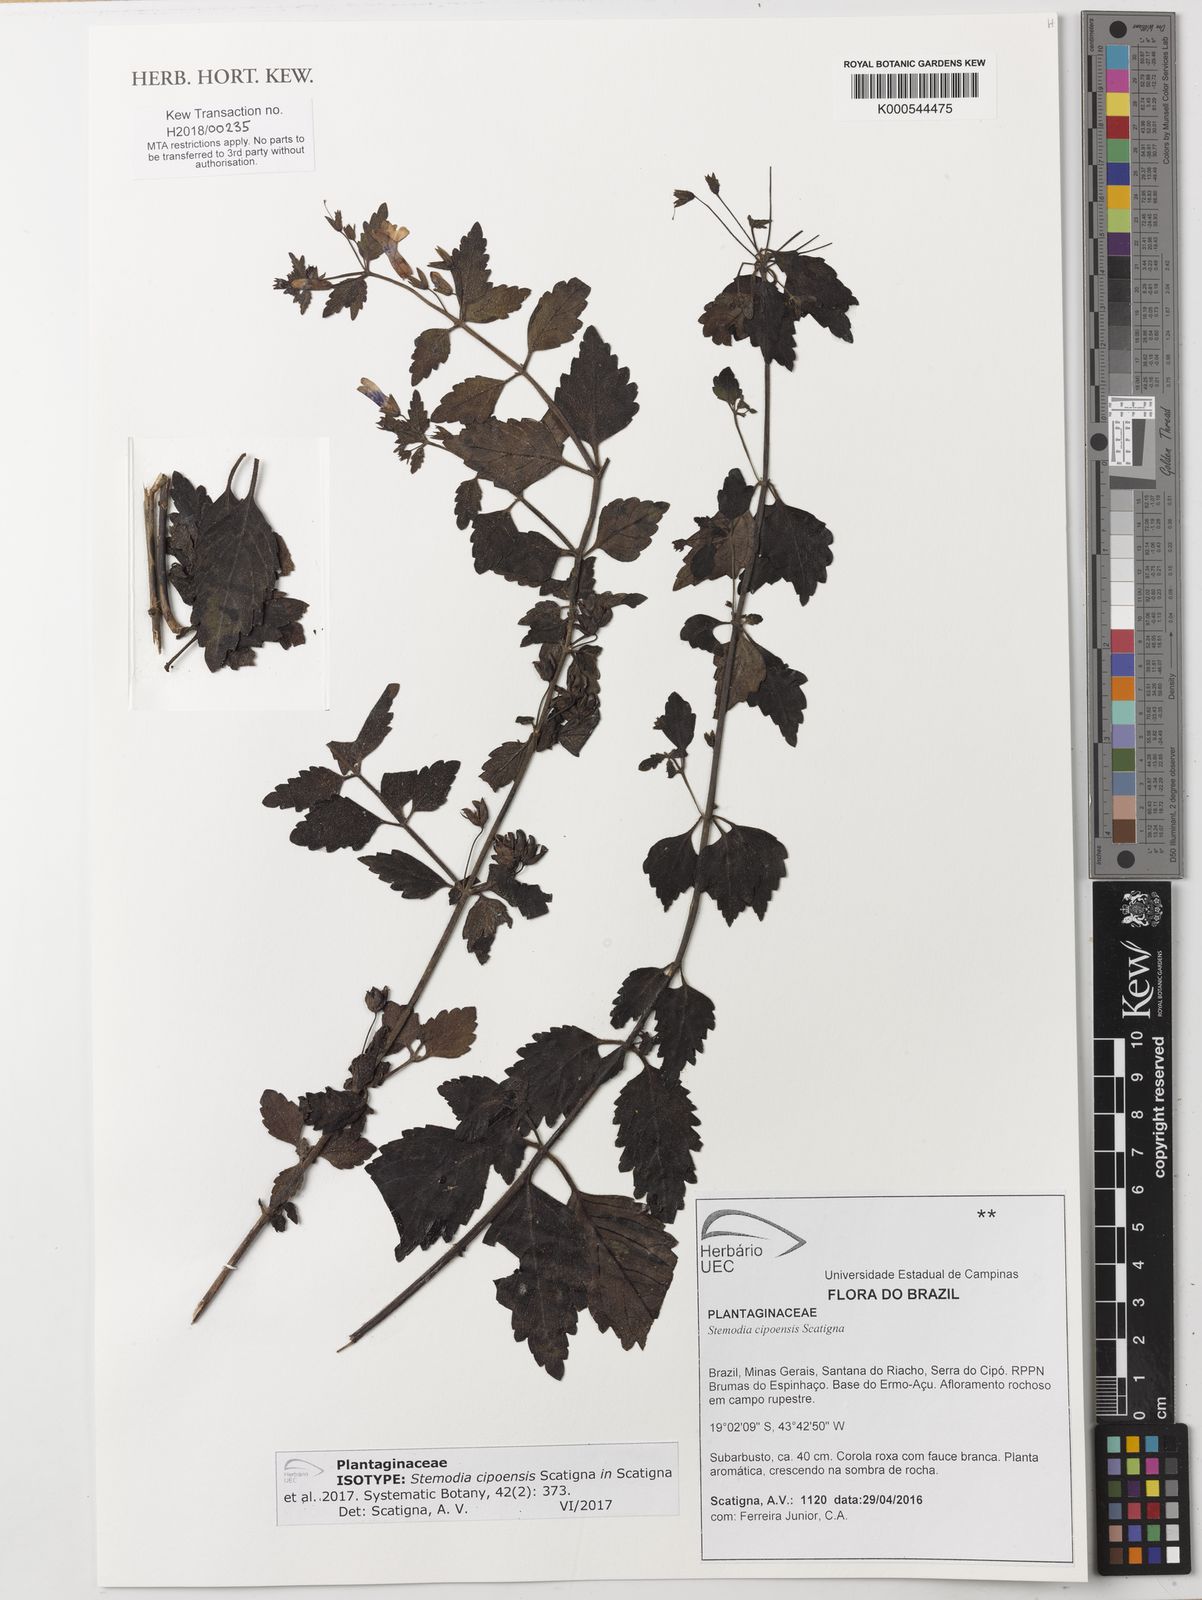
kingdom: Plantae
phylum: Tracheophyta
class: Magnoliopsida
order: Lamiales
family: Plantaginaceae
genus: Lapaea
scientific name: Lapaea cipoensis
